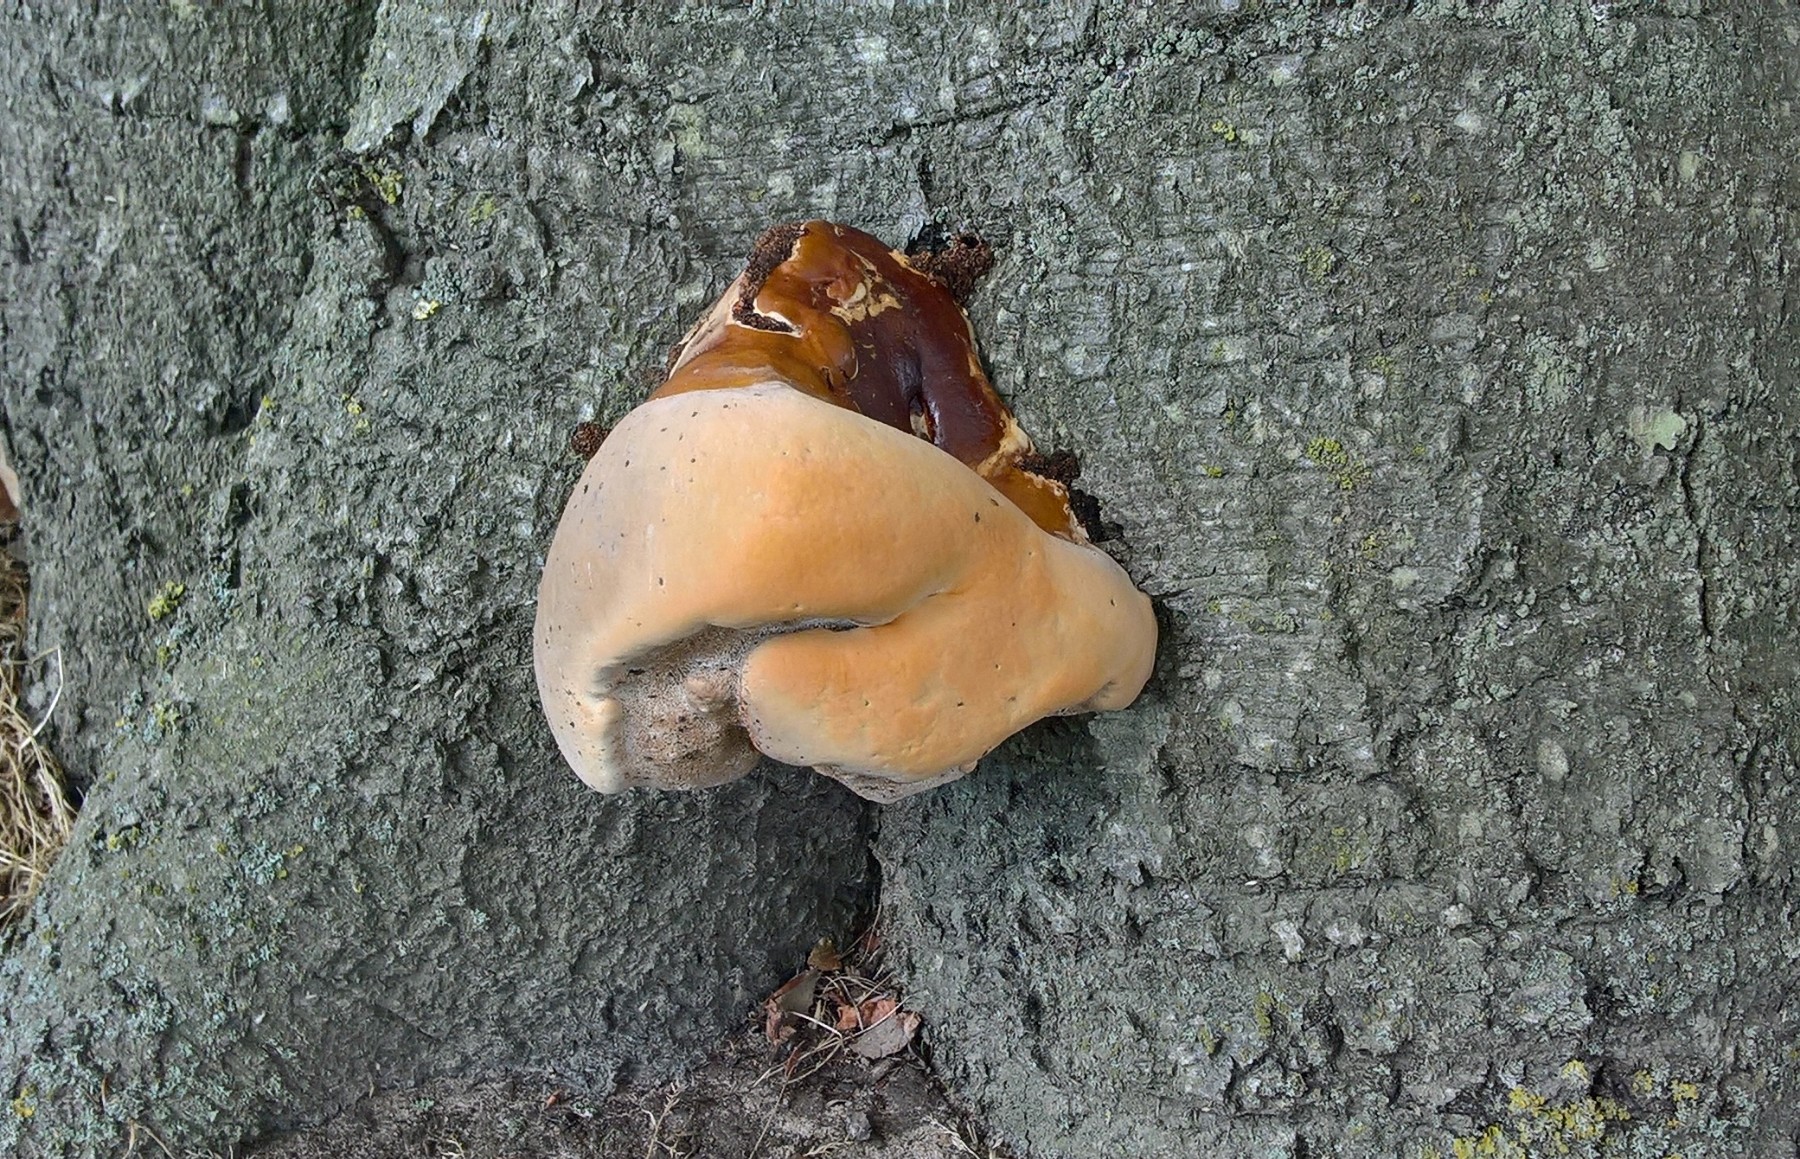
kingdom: Fungi
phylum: Basidiomycota
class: Agaricomycetes
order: Polyporales
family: Polyporaceae
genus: Ganoderma
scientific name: Ganoderma resinaceum
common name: gyldenbrun lakporesvamp
